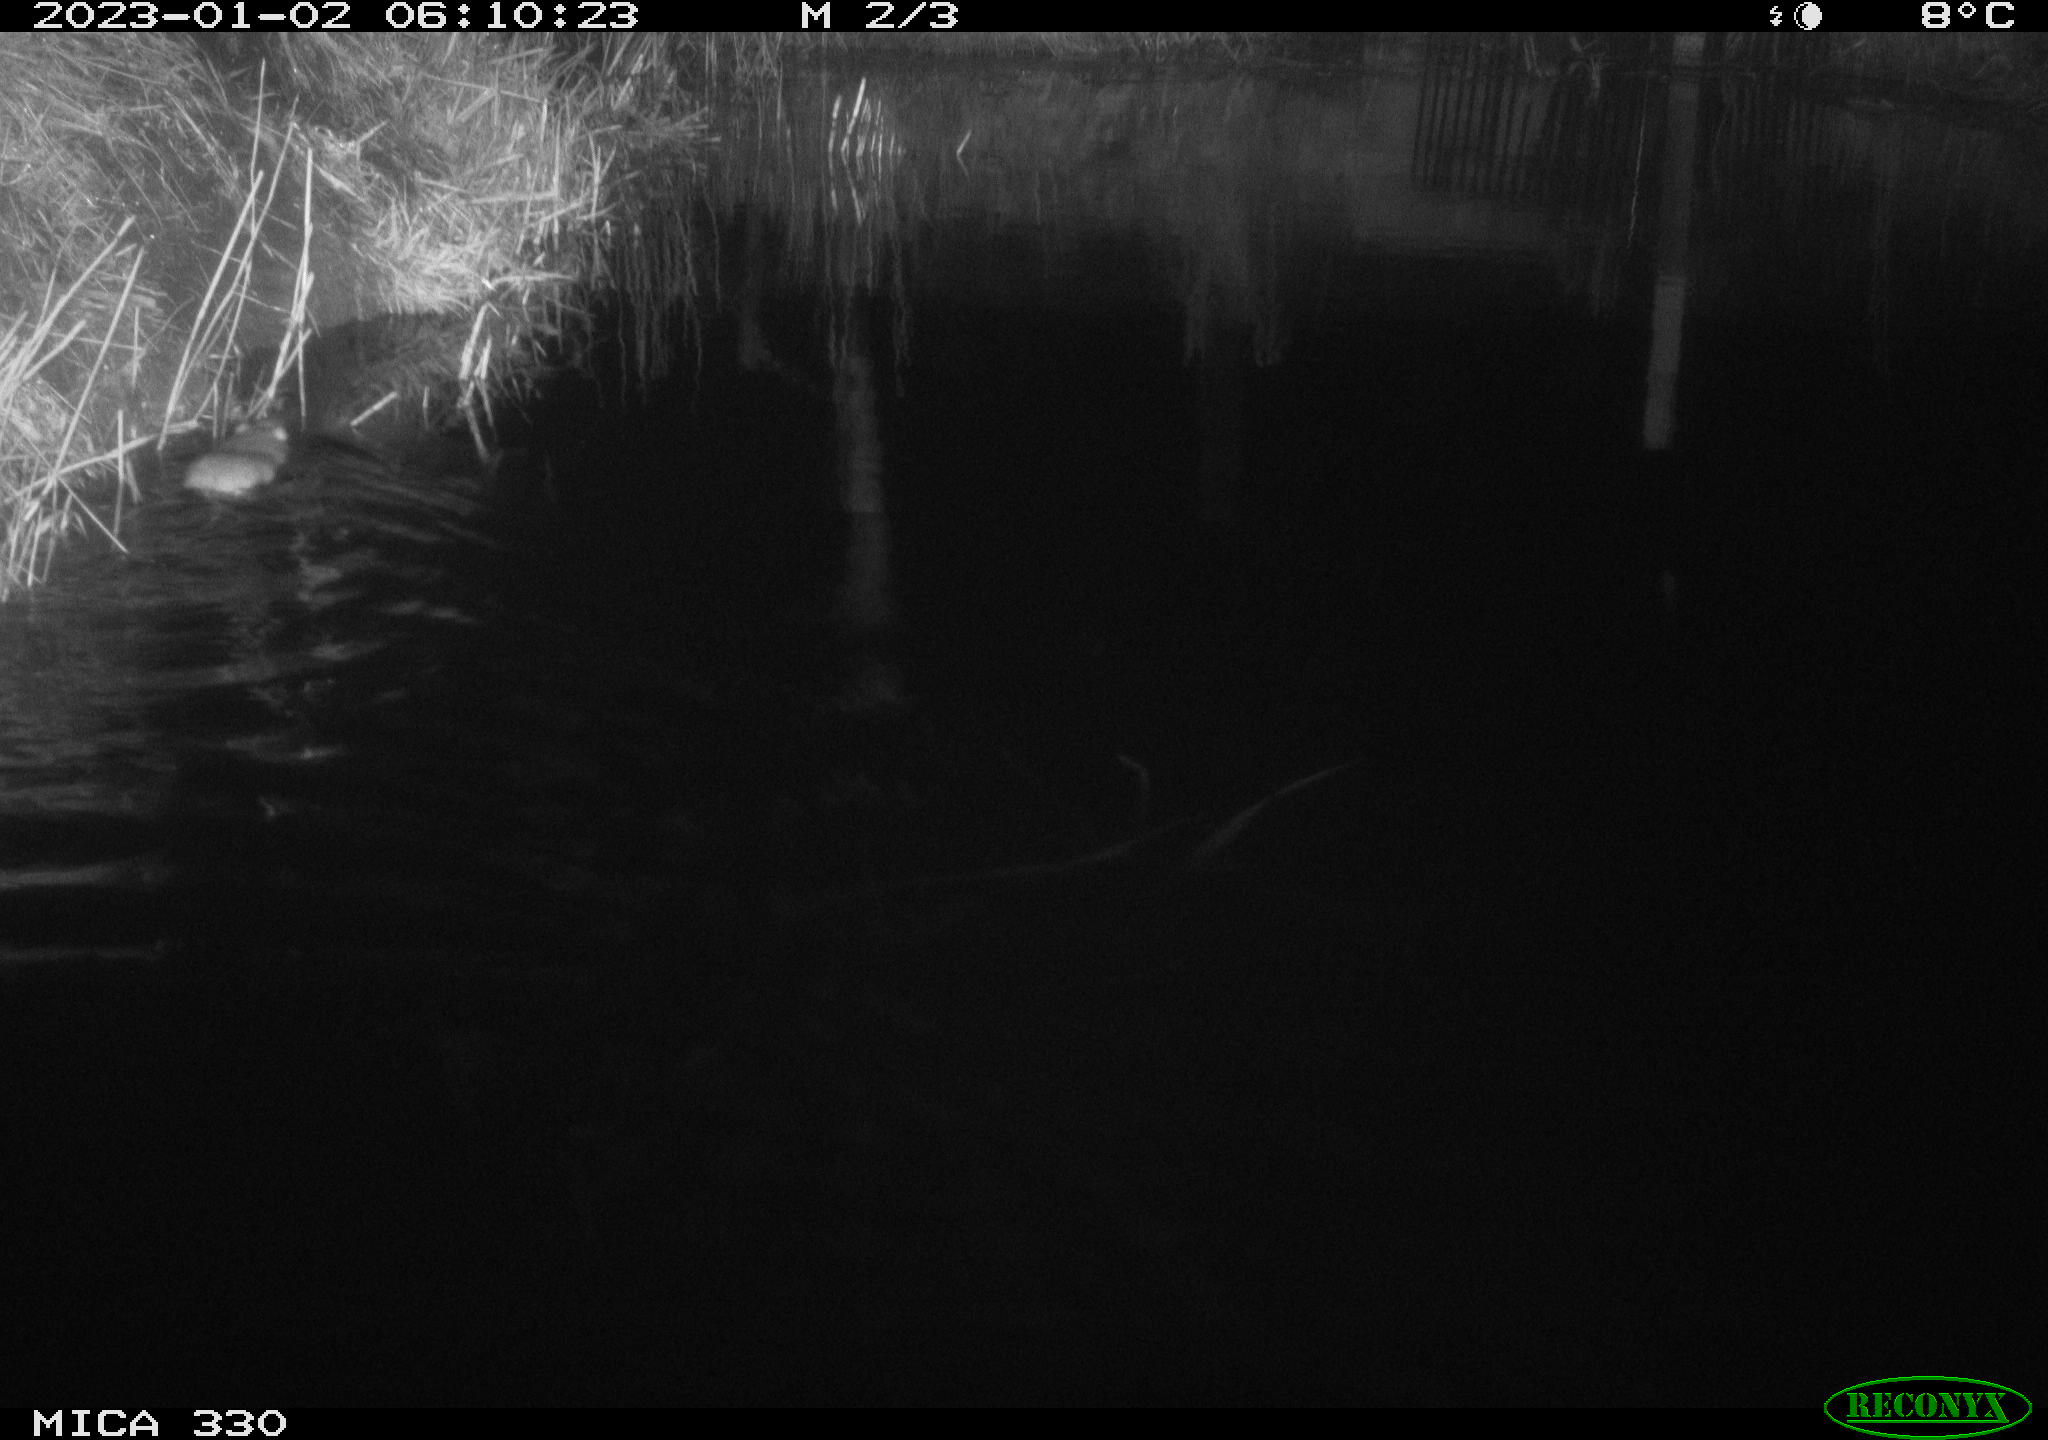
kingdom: Animalia
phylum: Chordata
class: Mammalia
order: Rodentia
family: Muridae
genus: Rattus
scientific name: Rattus norvegicus
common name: Brown rat
